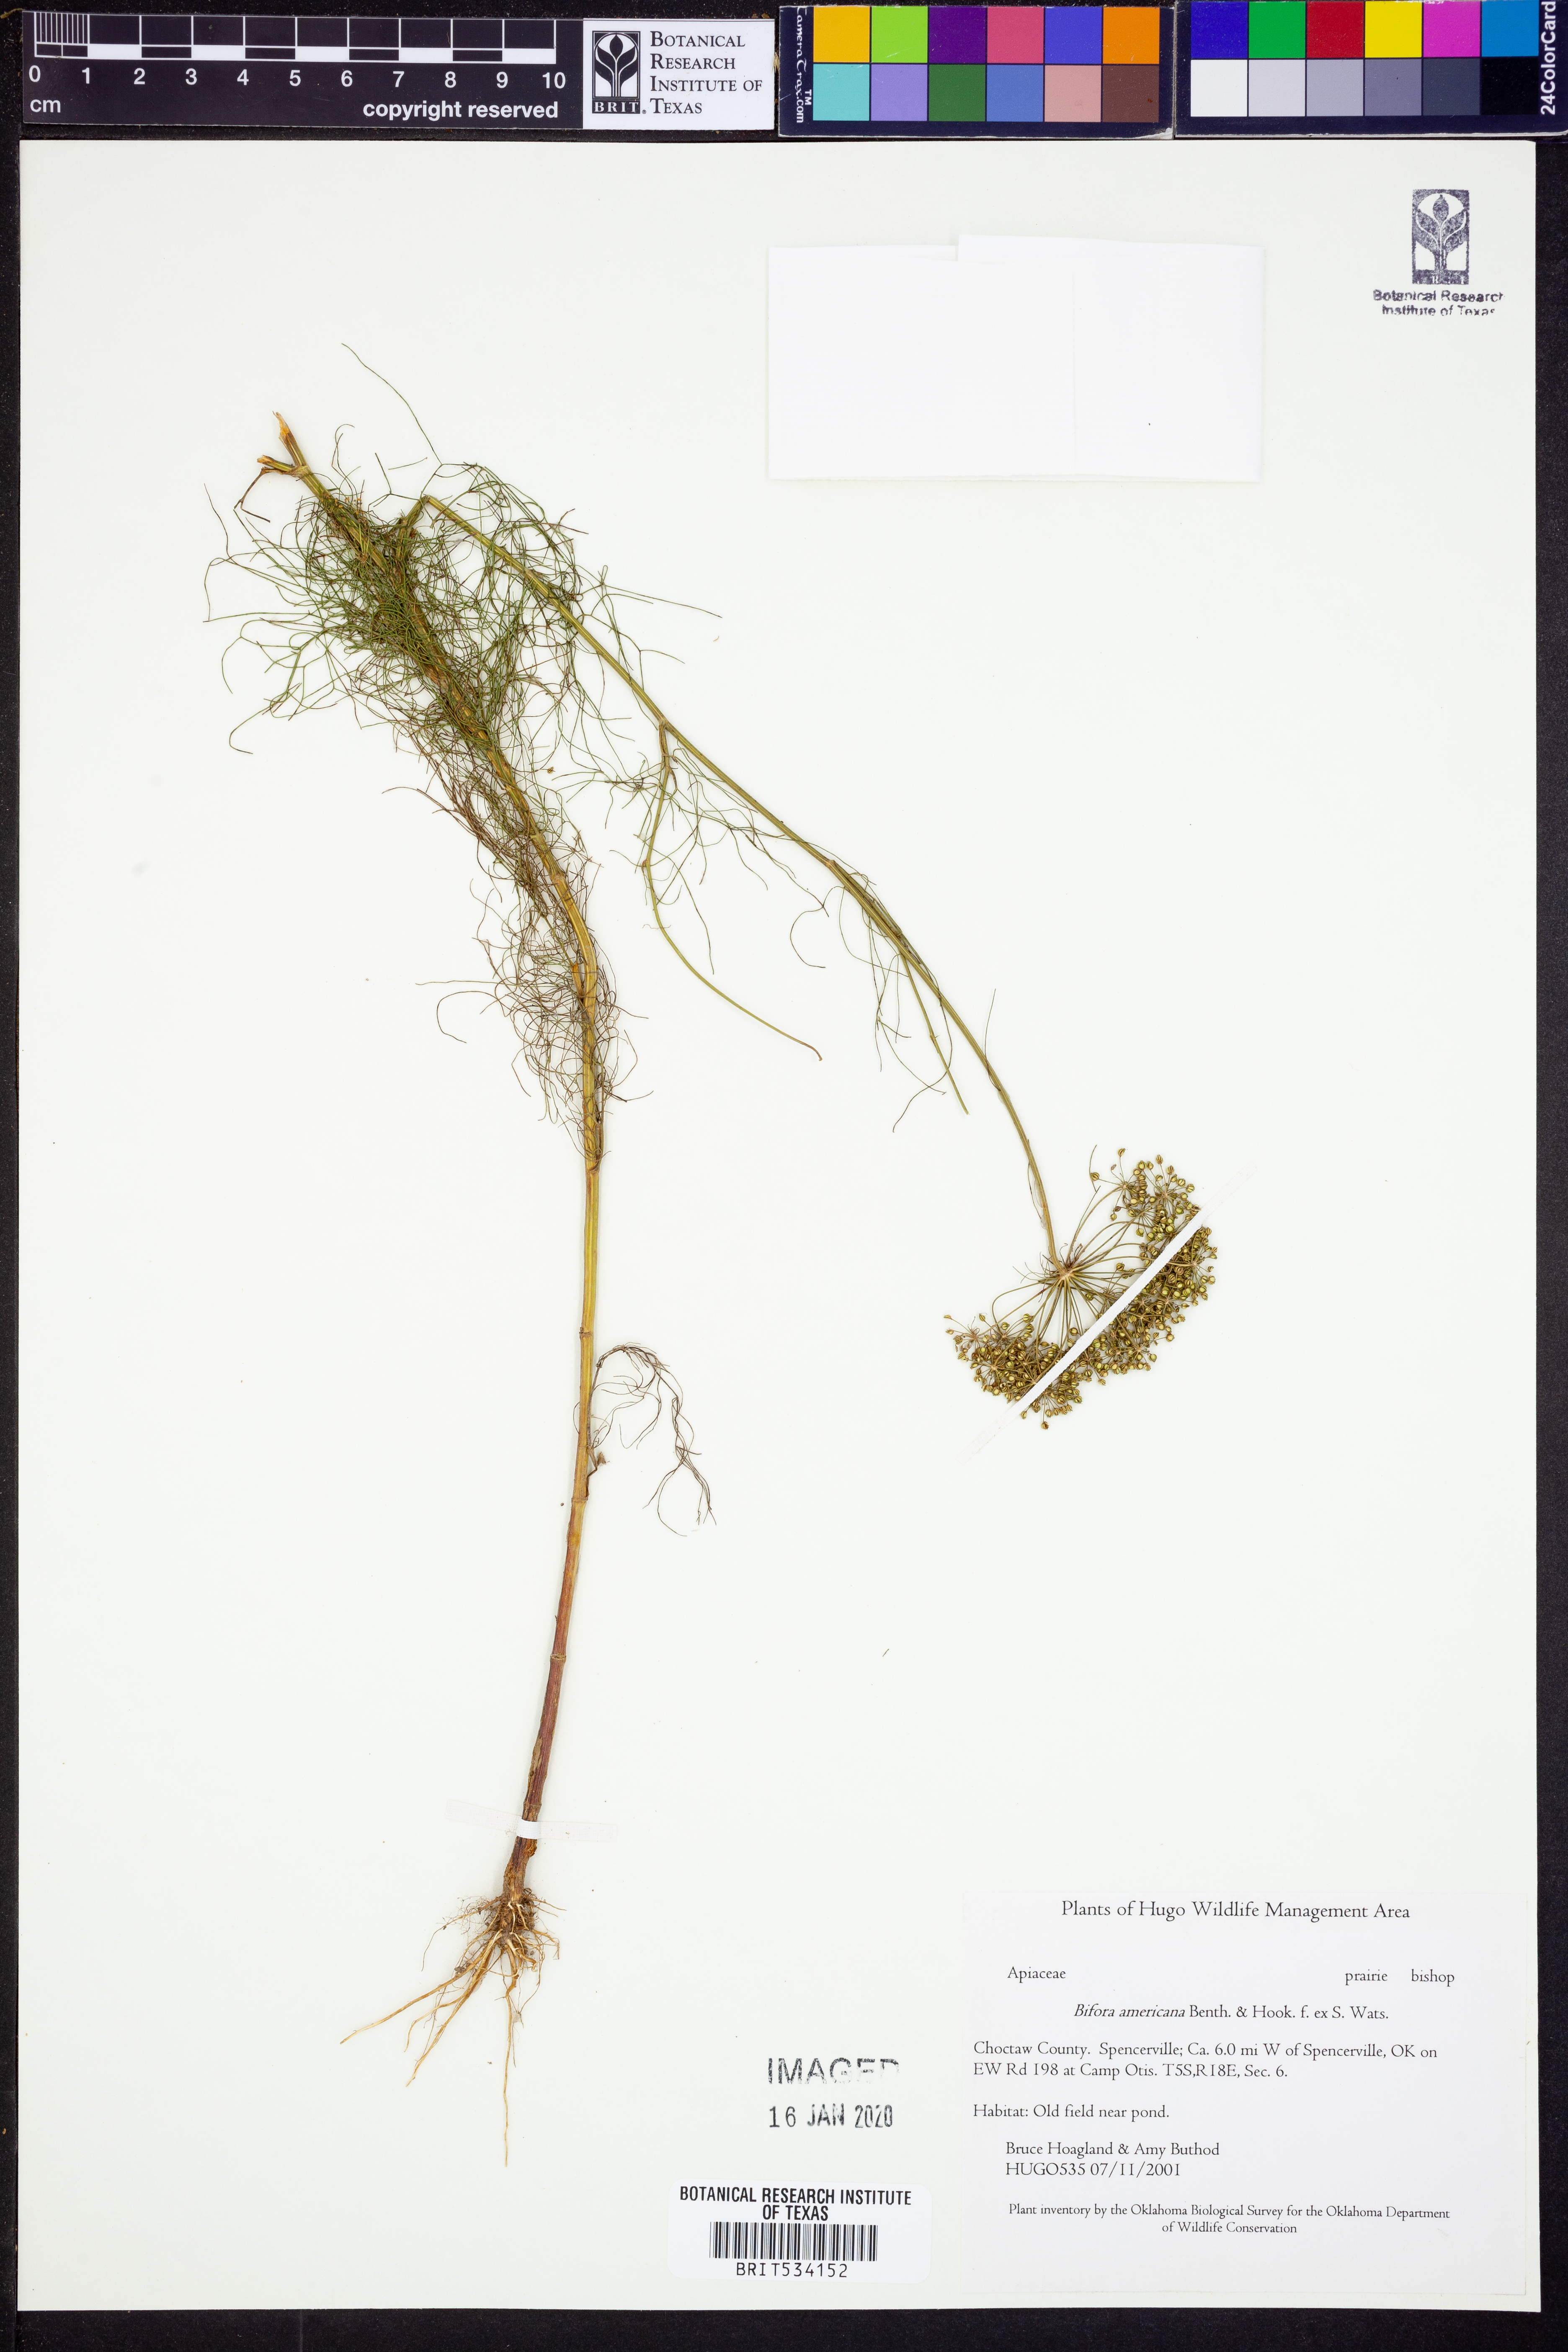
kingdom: Plantae
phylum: Tracheophyta
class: Magnoliopsida
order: Apiales
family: Apiaceae
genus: Atrema
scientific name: Atrema americanum
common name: Prairie-bishop
